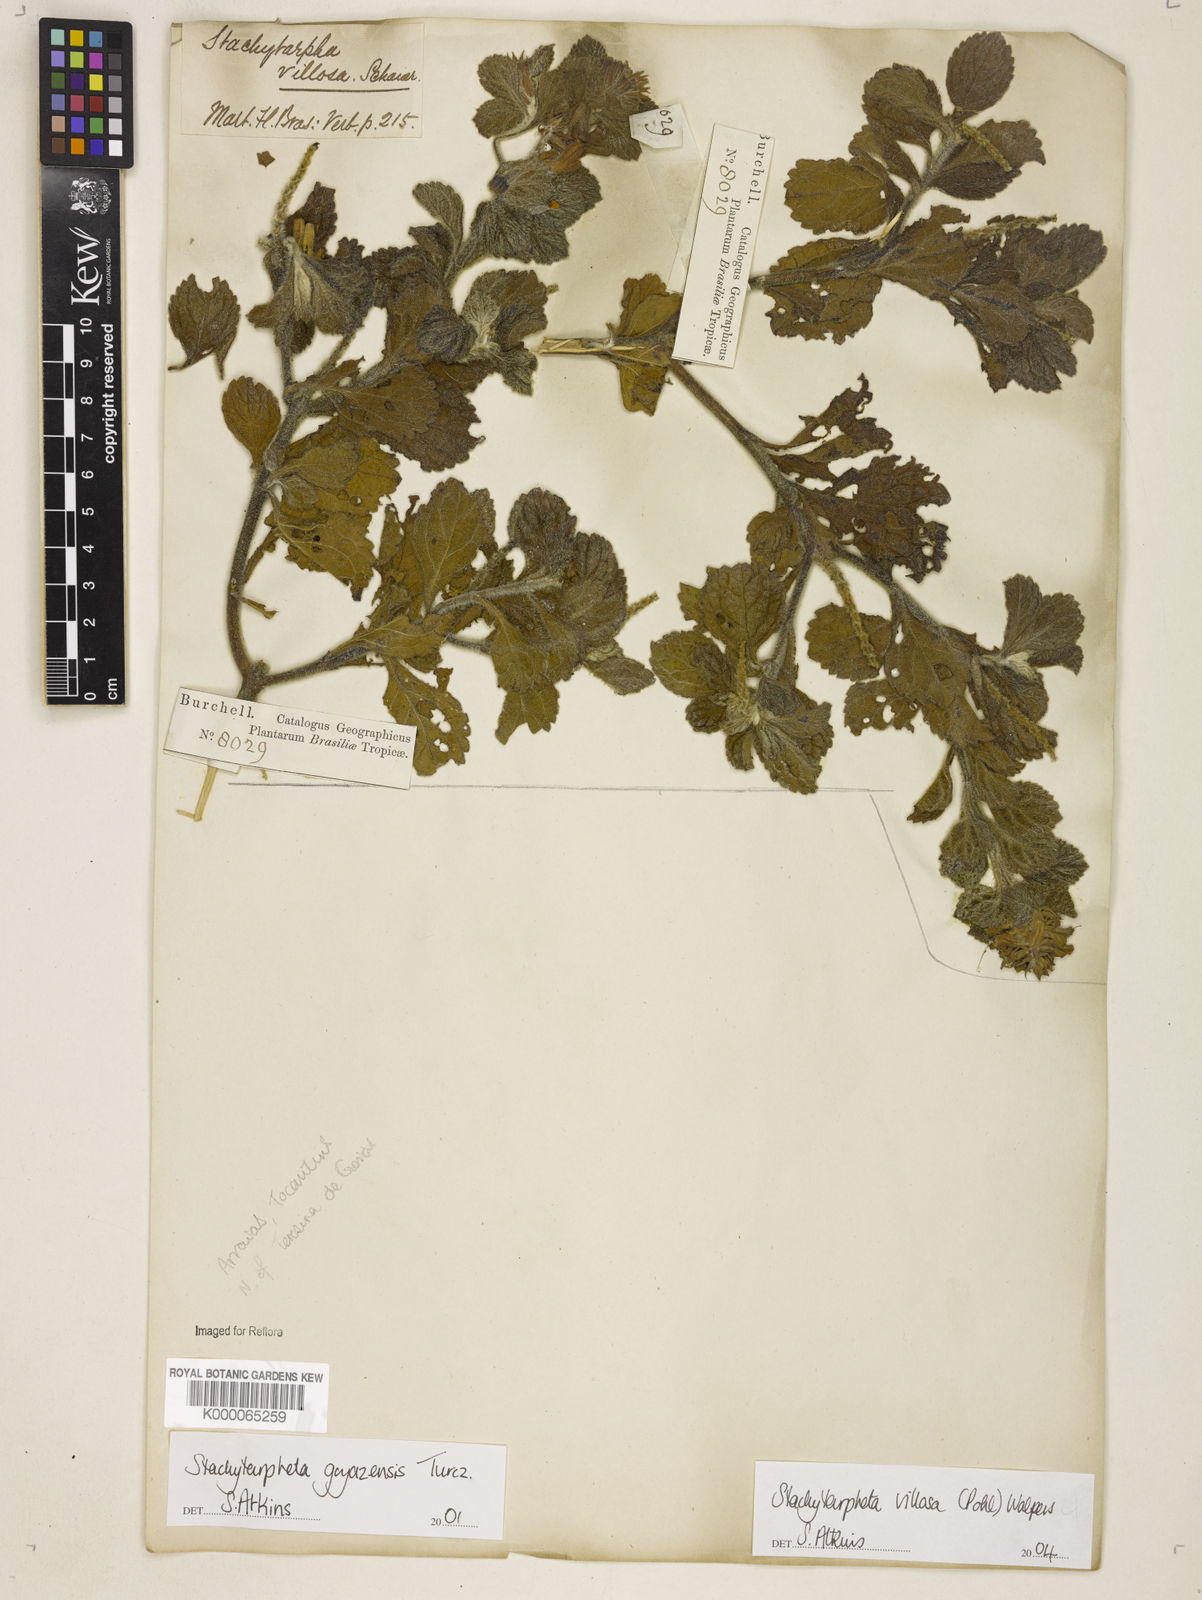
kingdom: Plantae
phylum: Tracheophyta
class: Magnoliopsida
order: Lamiales
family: Verbenaceae
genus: Stachytarpheta
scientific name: Stachytarpheta villosa
